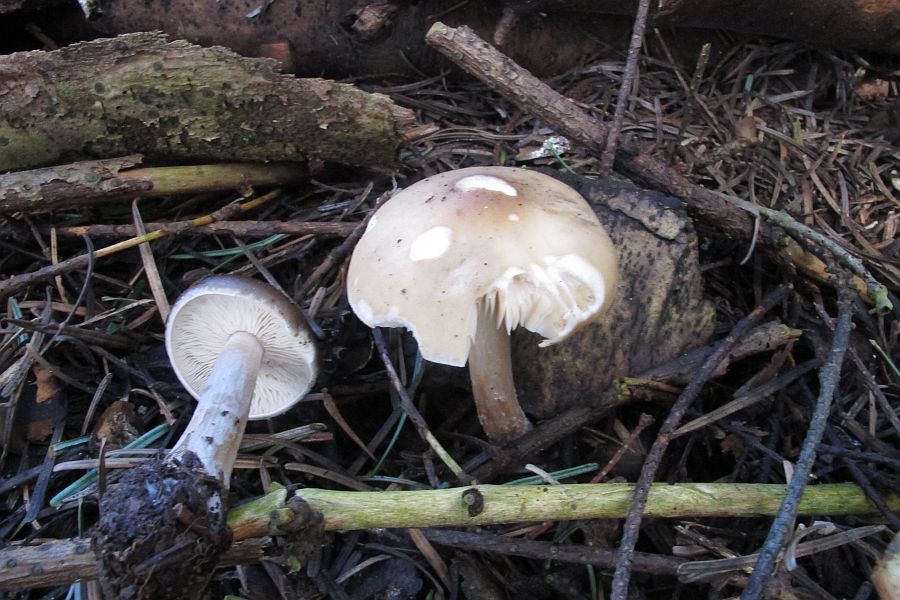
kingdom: Fungi
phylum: Basidiomycota
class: Agaricomycetes
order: Agaricales
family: Tricholomataceae
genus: Melanoleuca
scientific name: Melanoleuca cognata
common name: gyldengrå munkehat
